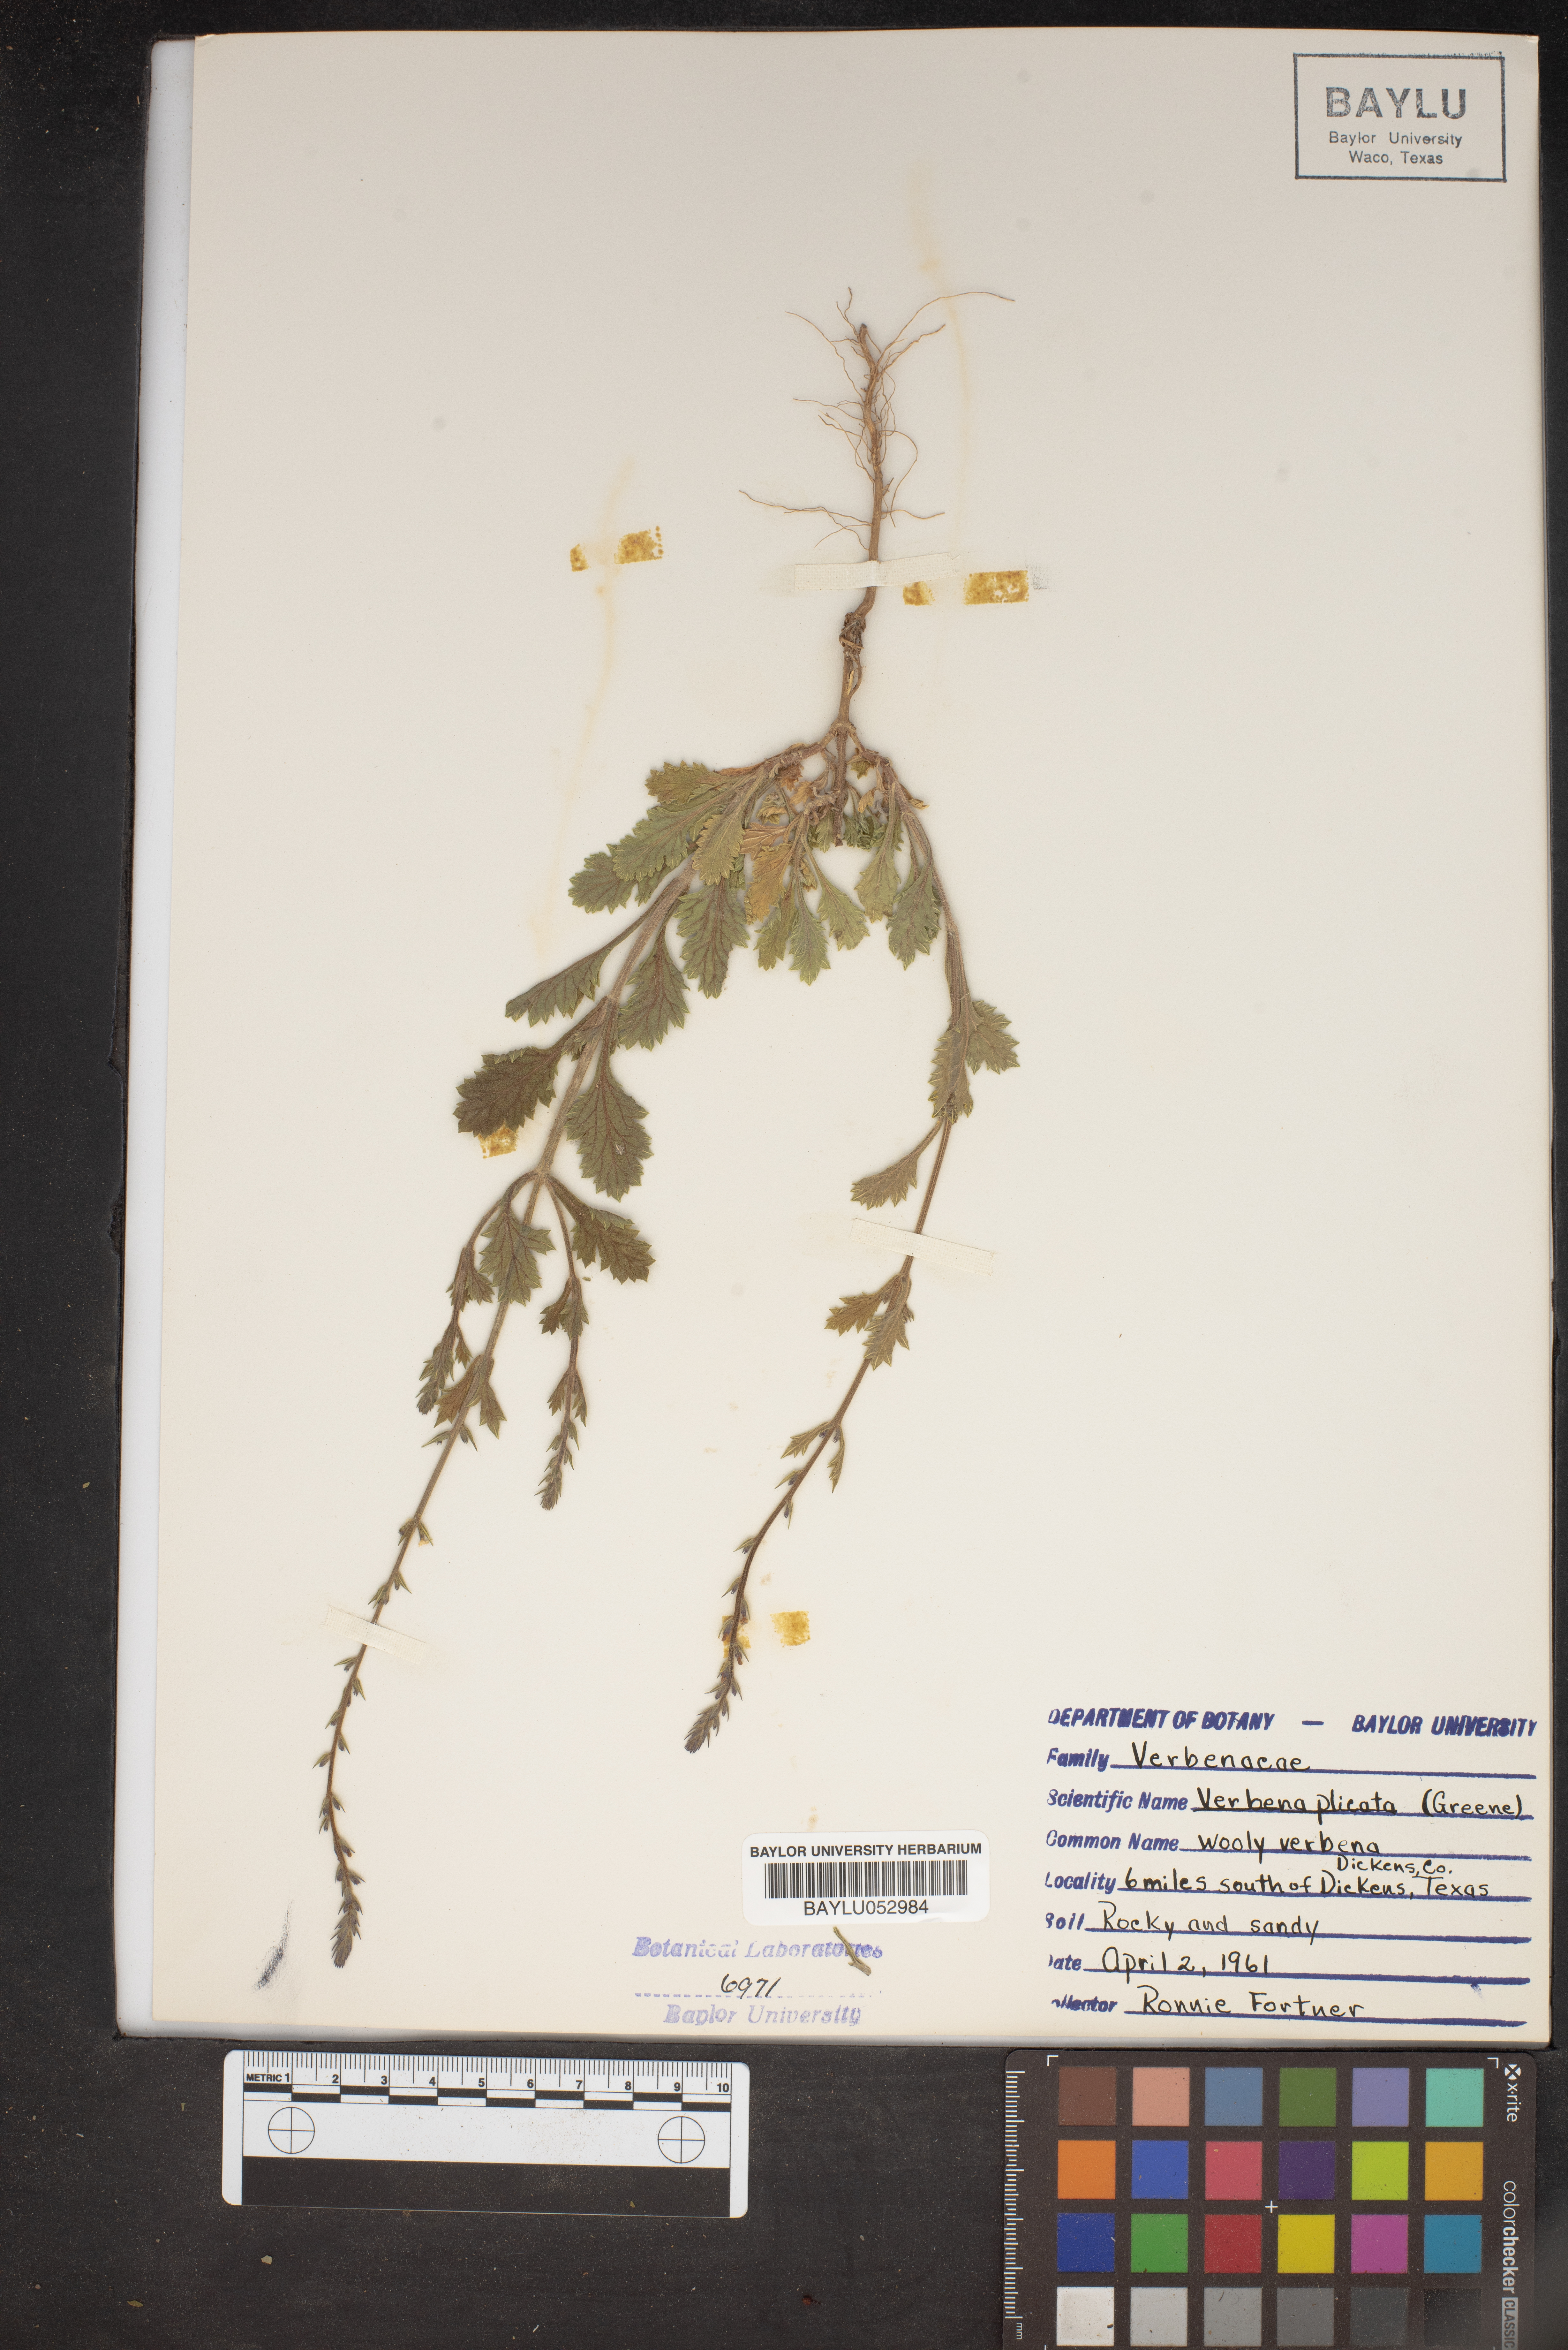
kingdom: Plantae
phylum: Tracheophyta
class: Magnoliopsida
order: Lamiales
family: Verbenaceae
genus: Verbena
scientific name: Verbena plicata
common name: Fan-leaf vervain
